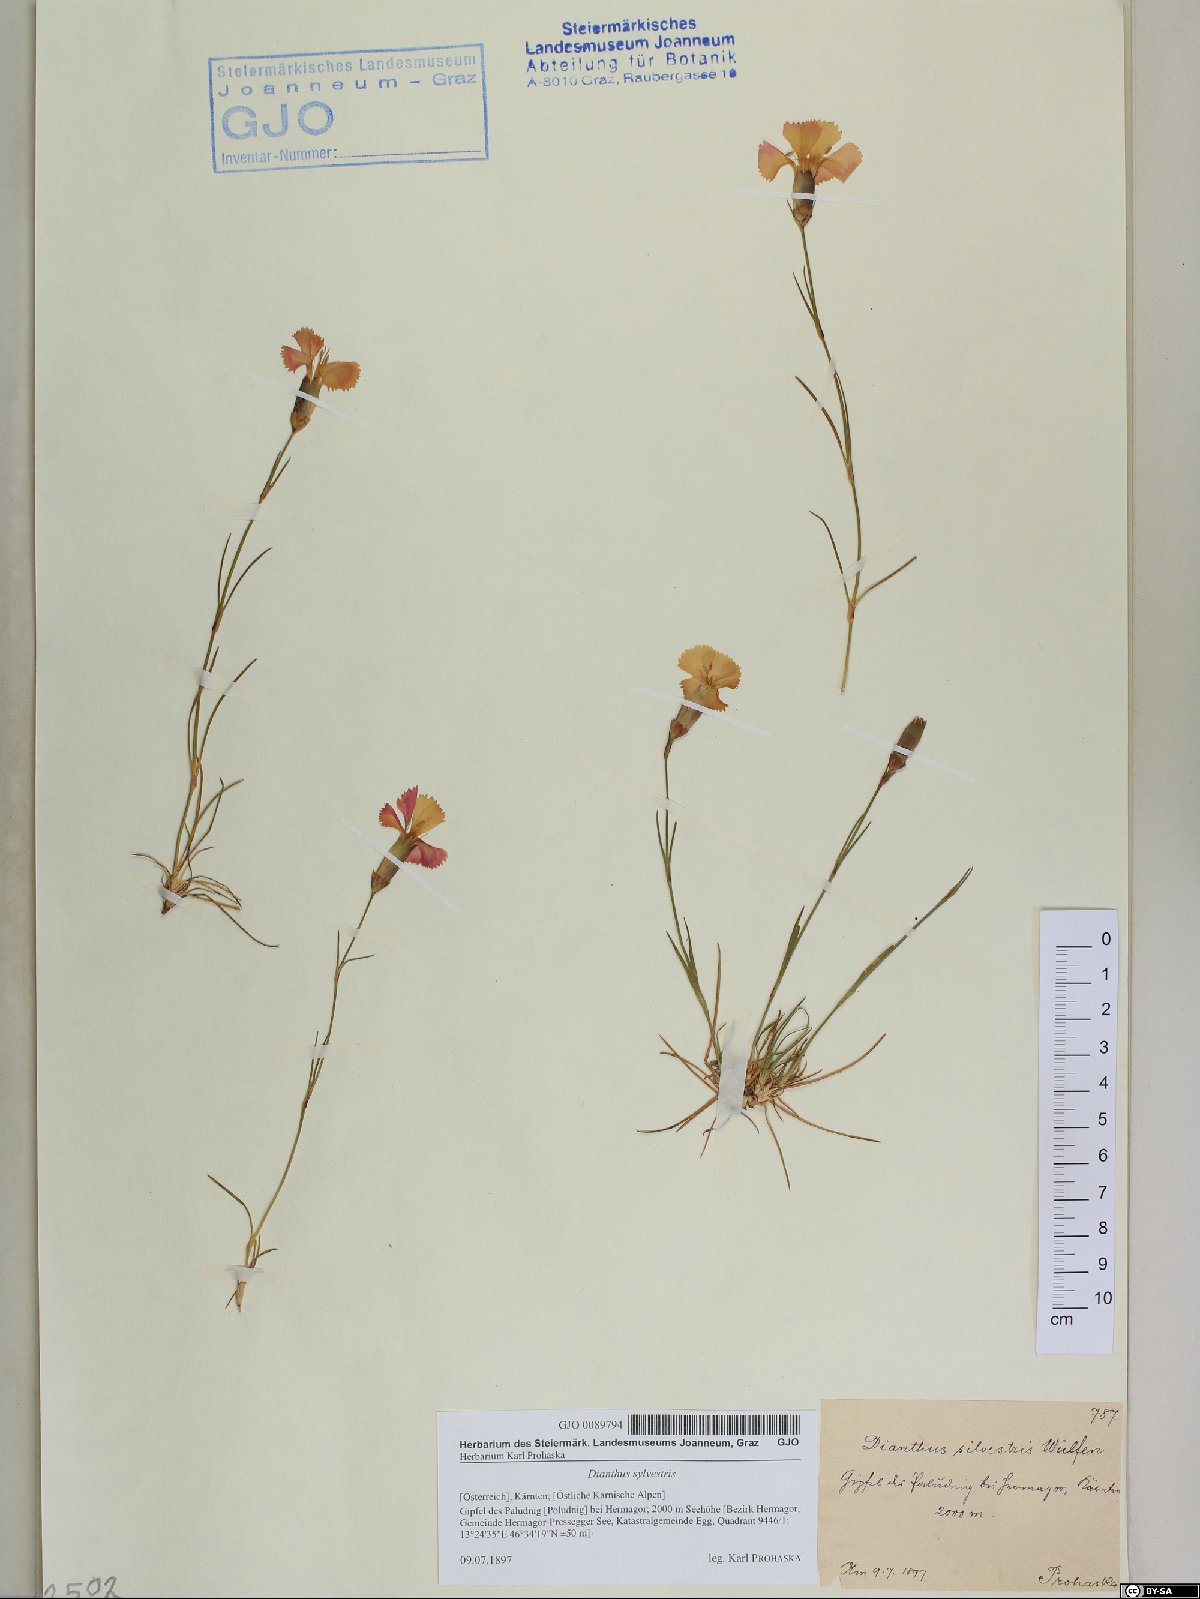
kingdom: Plantae
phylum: Tracheophyta
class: Magnoliopsida
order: Caryophyllales
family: Caryophyllaceae
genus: Dianthus
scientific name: Dianthus sylvestris
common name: Wood pink
